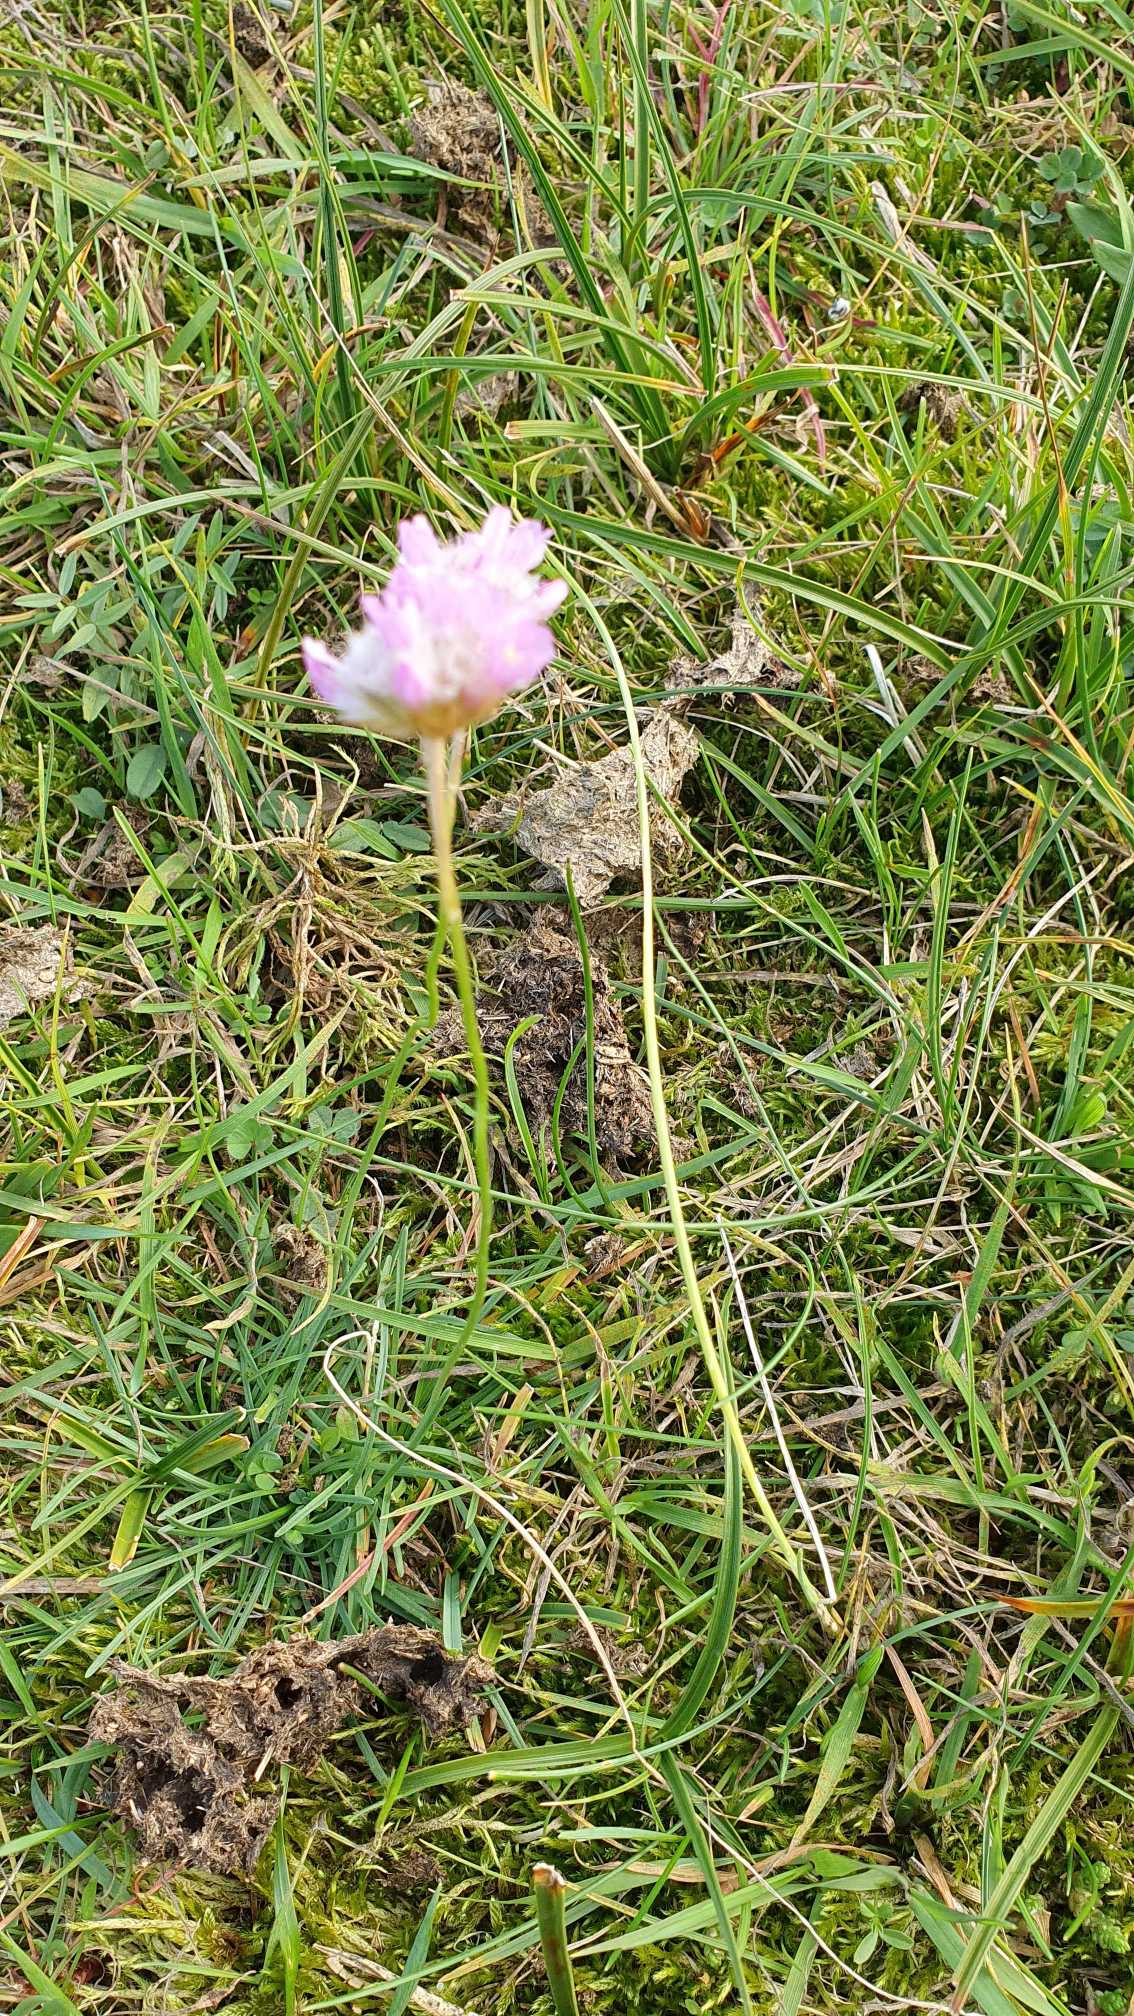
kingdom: Plantae
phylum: Tracheophyta
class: Magnoliopsida
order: Caryophyllales
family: Plumbaginaceae
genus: Armeria
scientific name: Armeria maritima
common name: Engelskgræs
